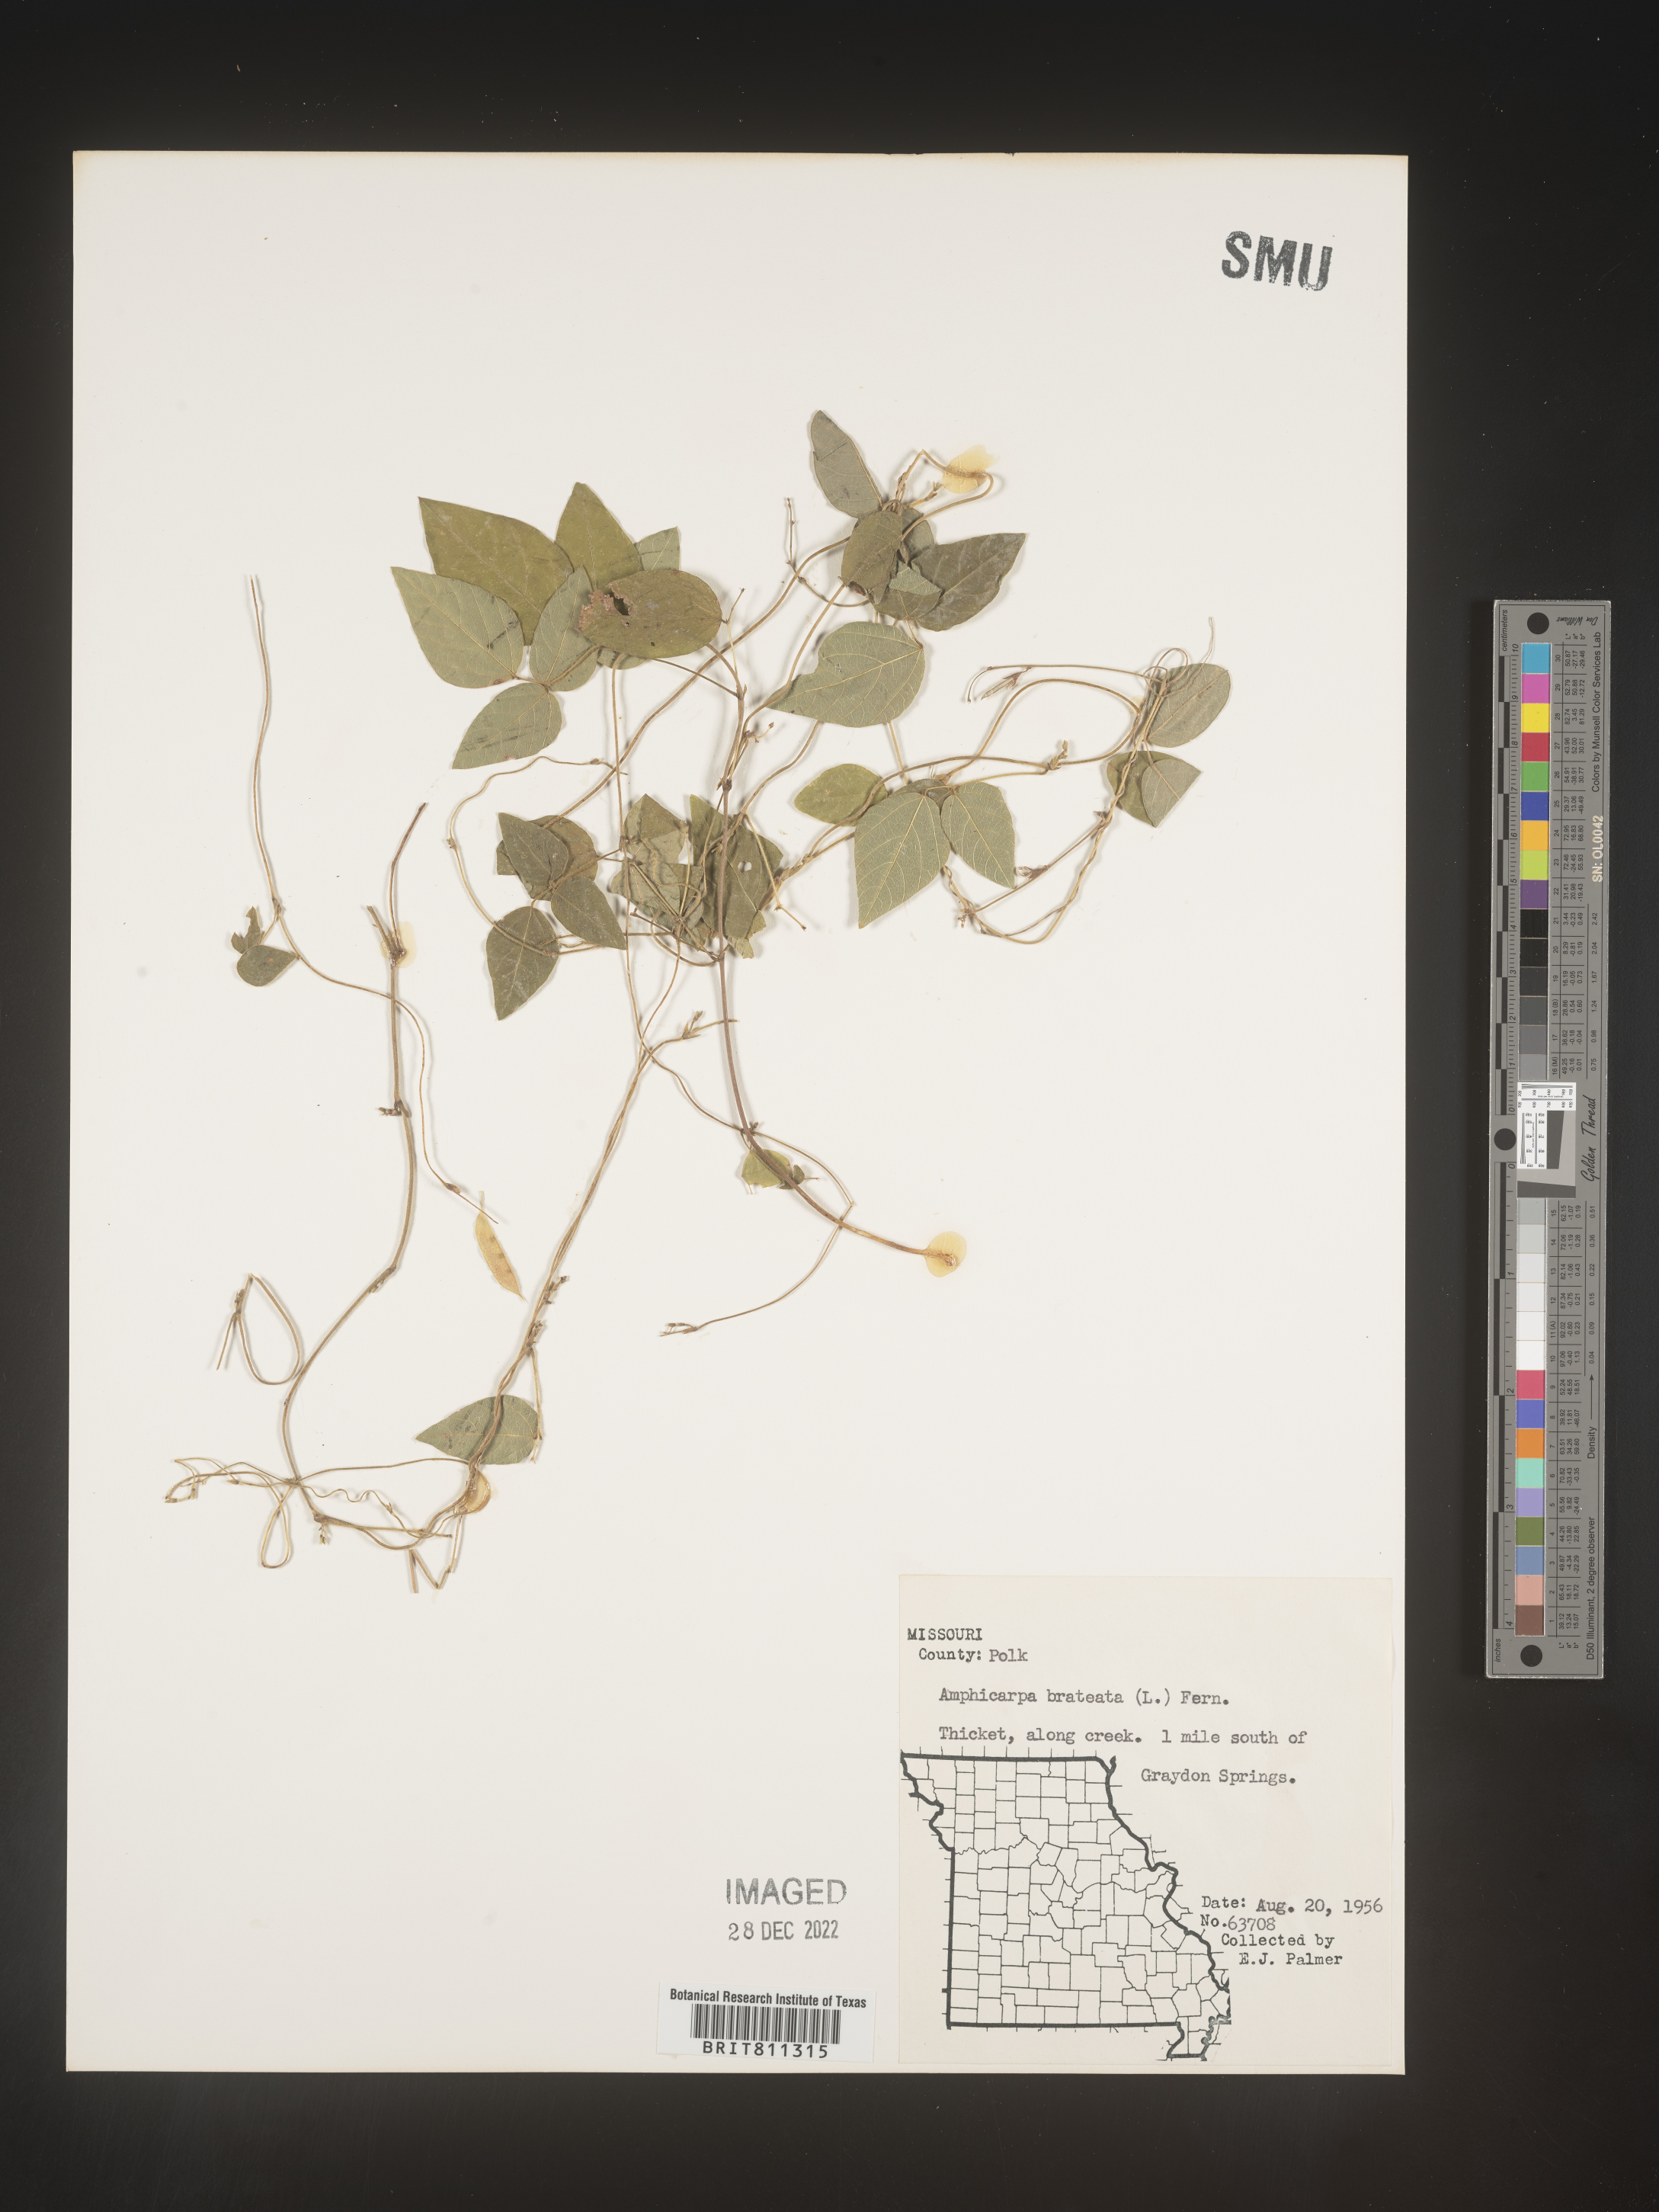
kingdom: Plantae
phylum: Tracheophyta
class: Magnoliopsida
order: Fabales
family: Fabaceae
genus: Amphicarpaea
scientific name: Amphicarpaea bracteata
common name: American hog peanut
